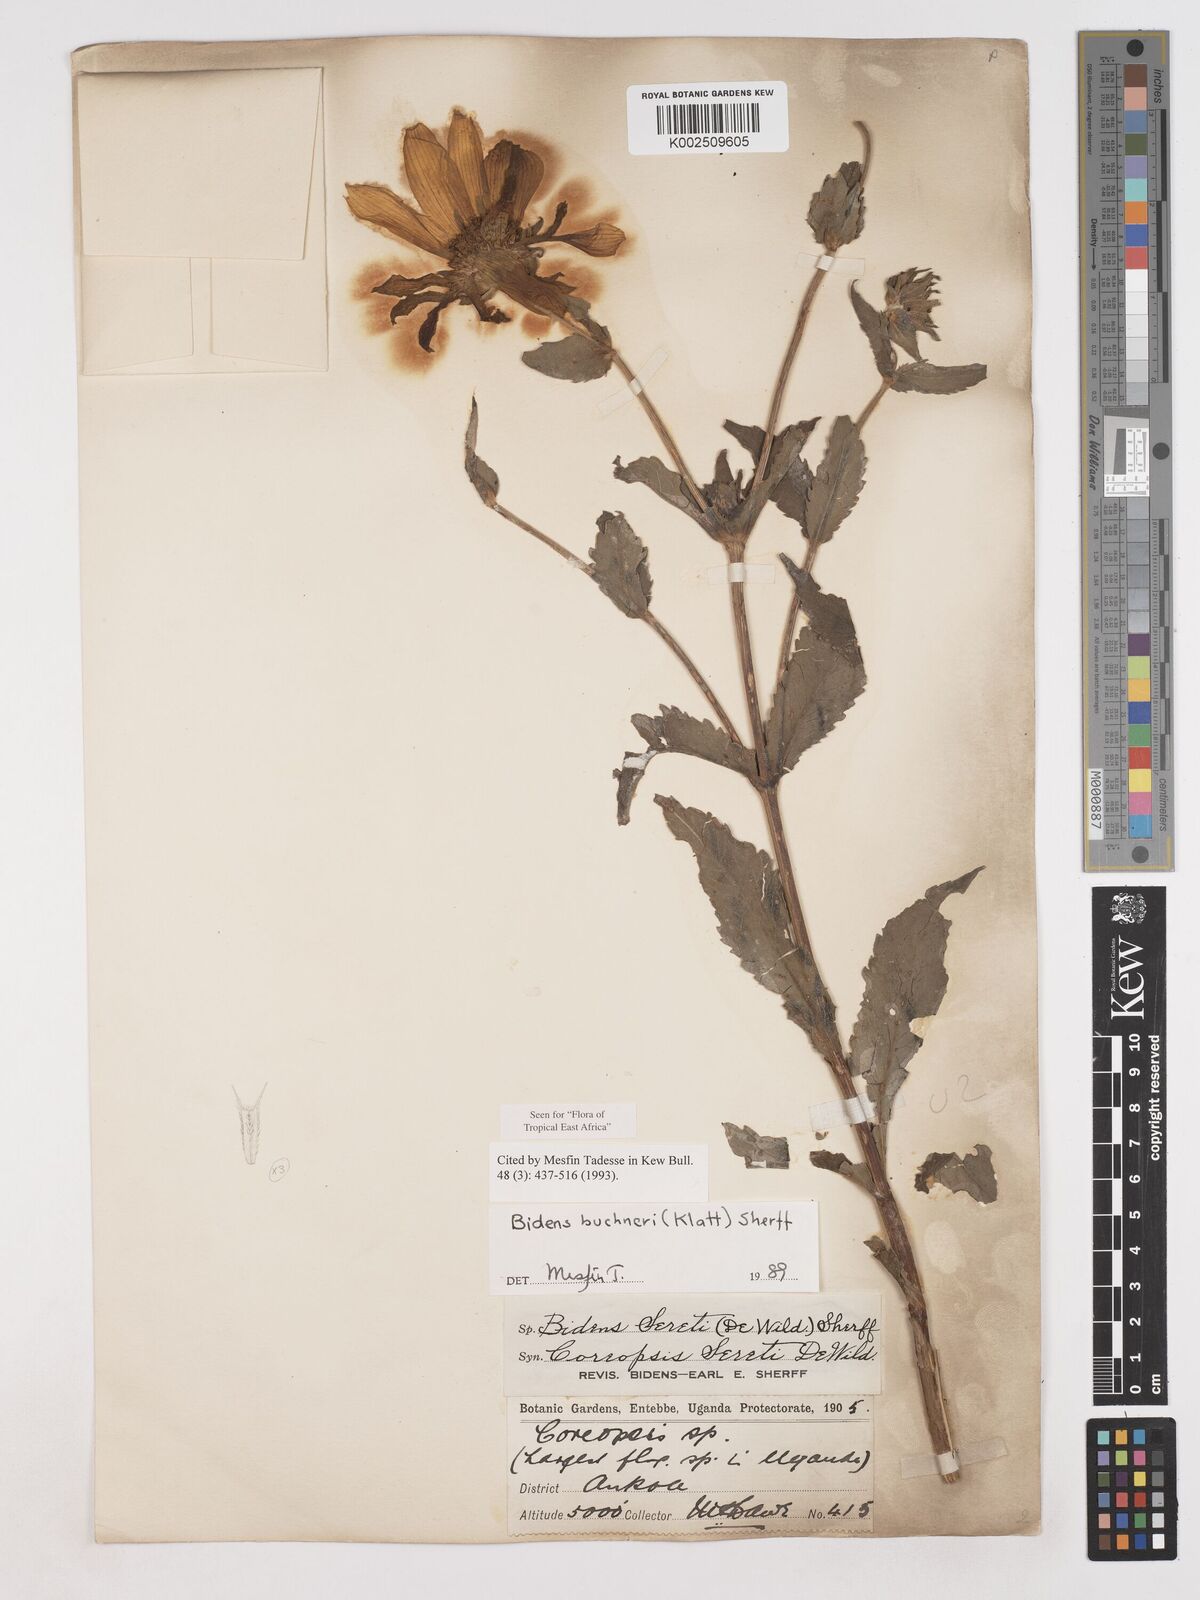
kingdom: Plantae
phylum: Tracheophyta
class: Magnoliopsida
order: Asterales
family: Asteraceae
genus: Bidens
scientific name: Bidens buchneri
